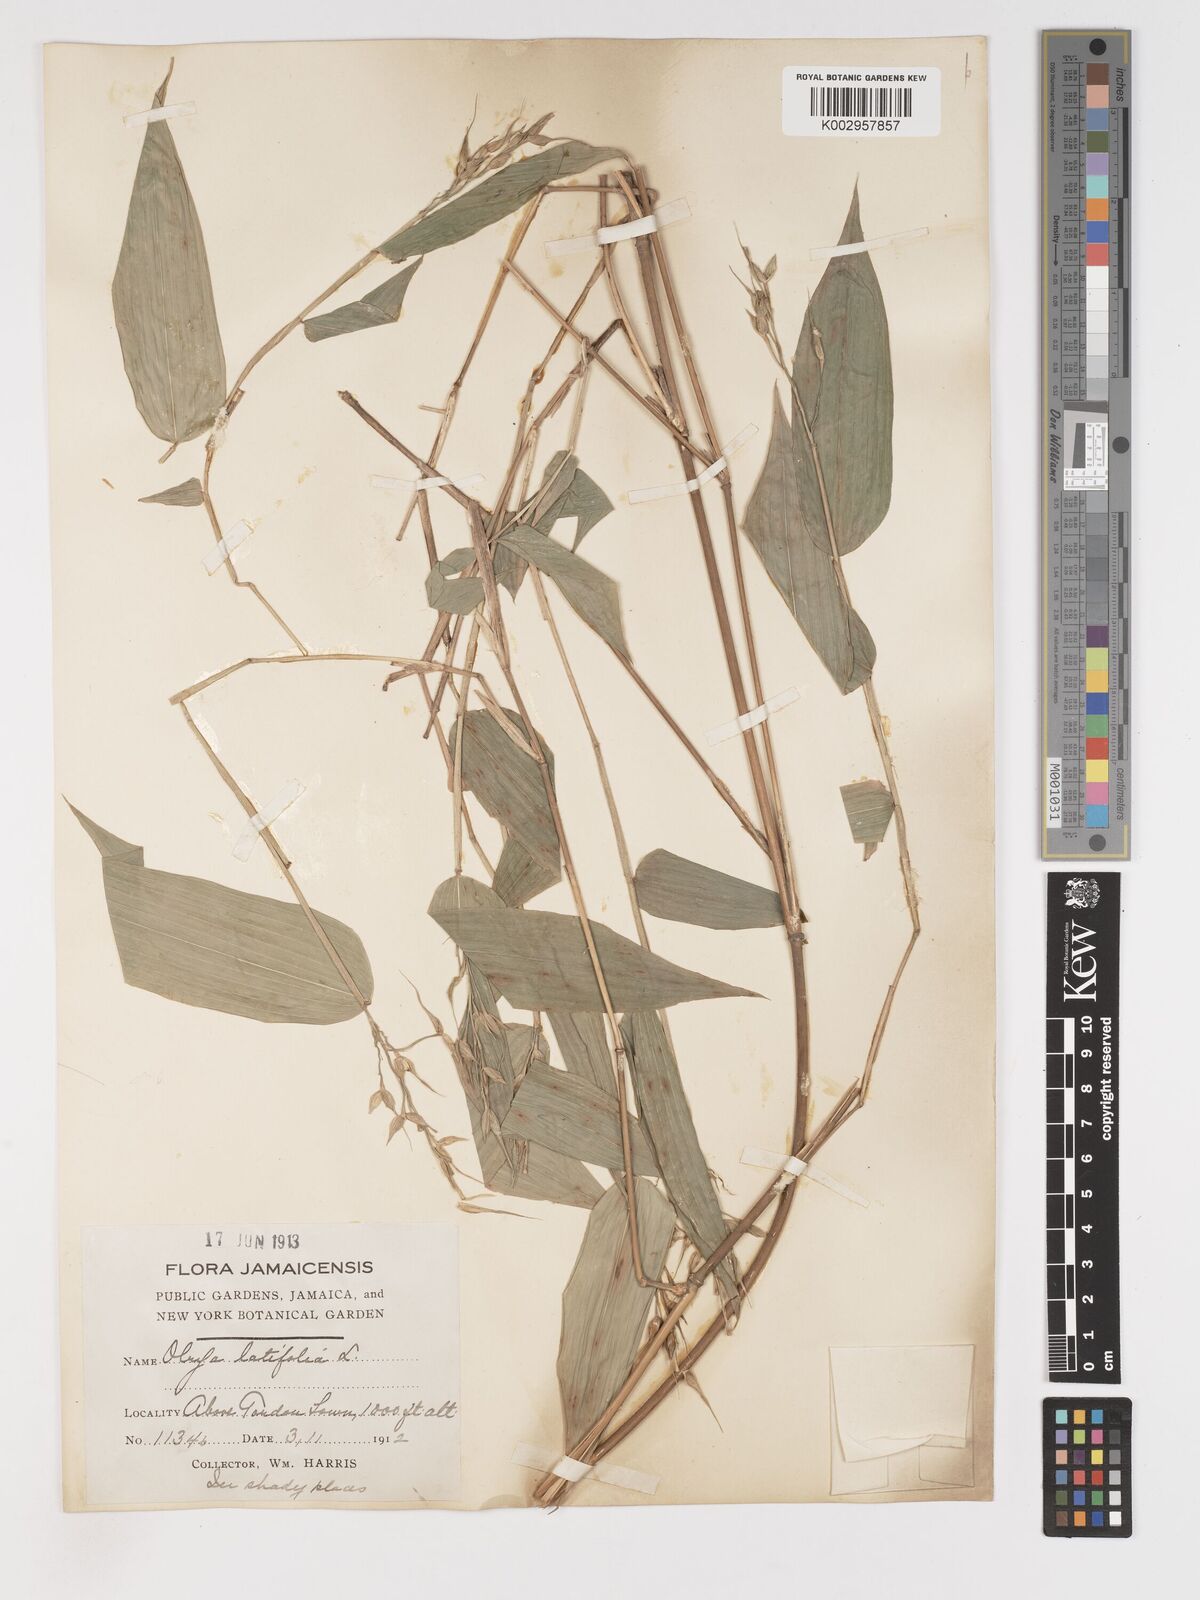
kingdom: Plantae
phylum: Tracheophyta
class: Liliopsida
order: Poales
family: Poaceae
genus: Olyra
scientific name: Olyra latifolia
